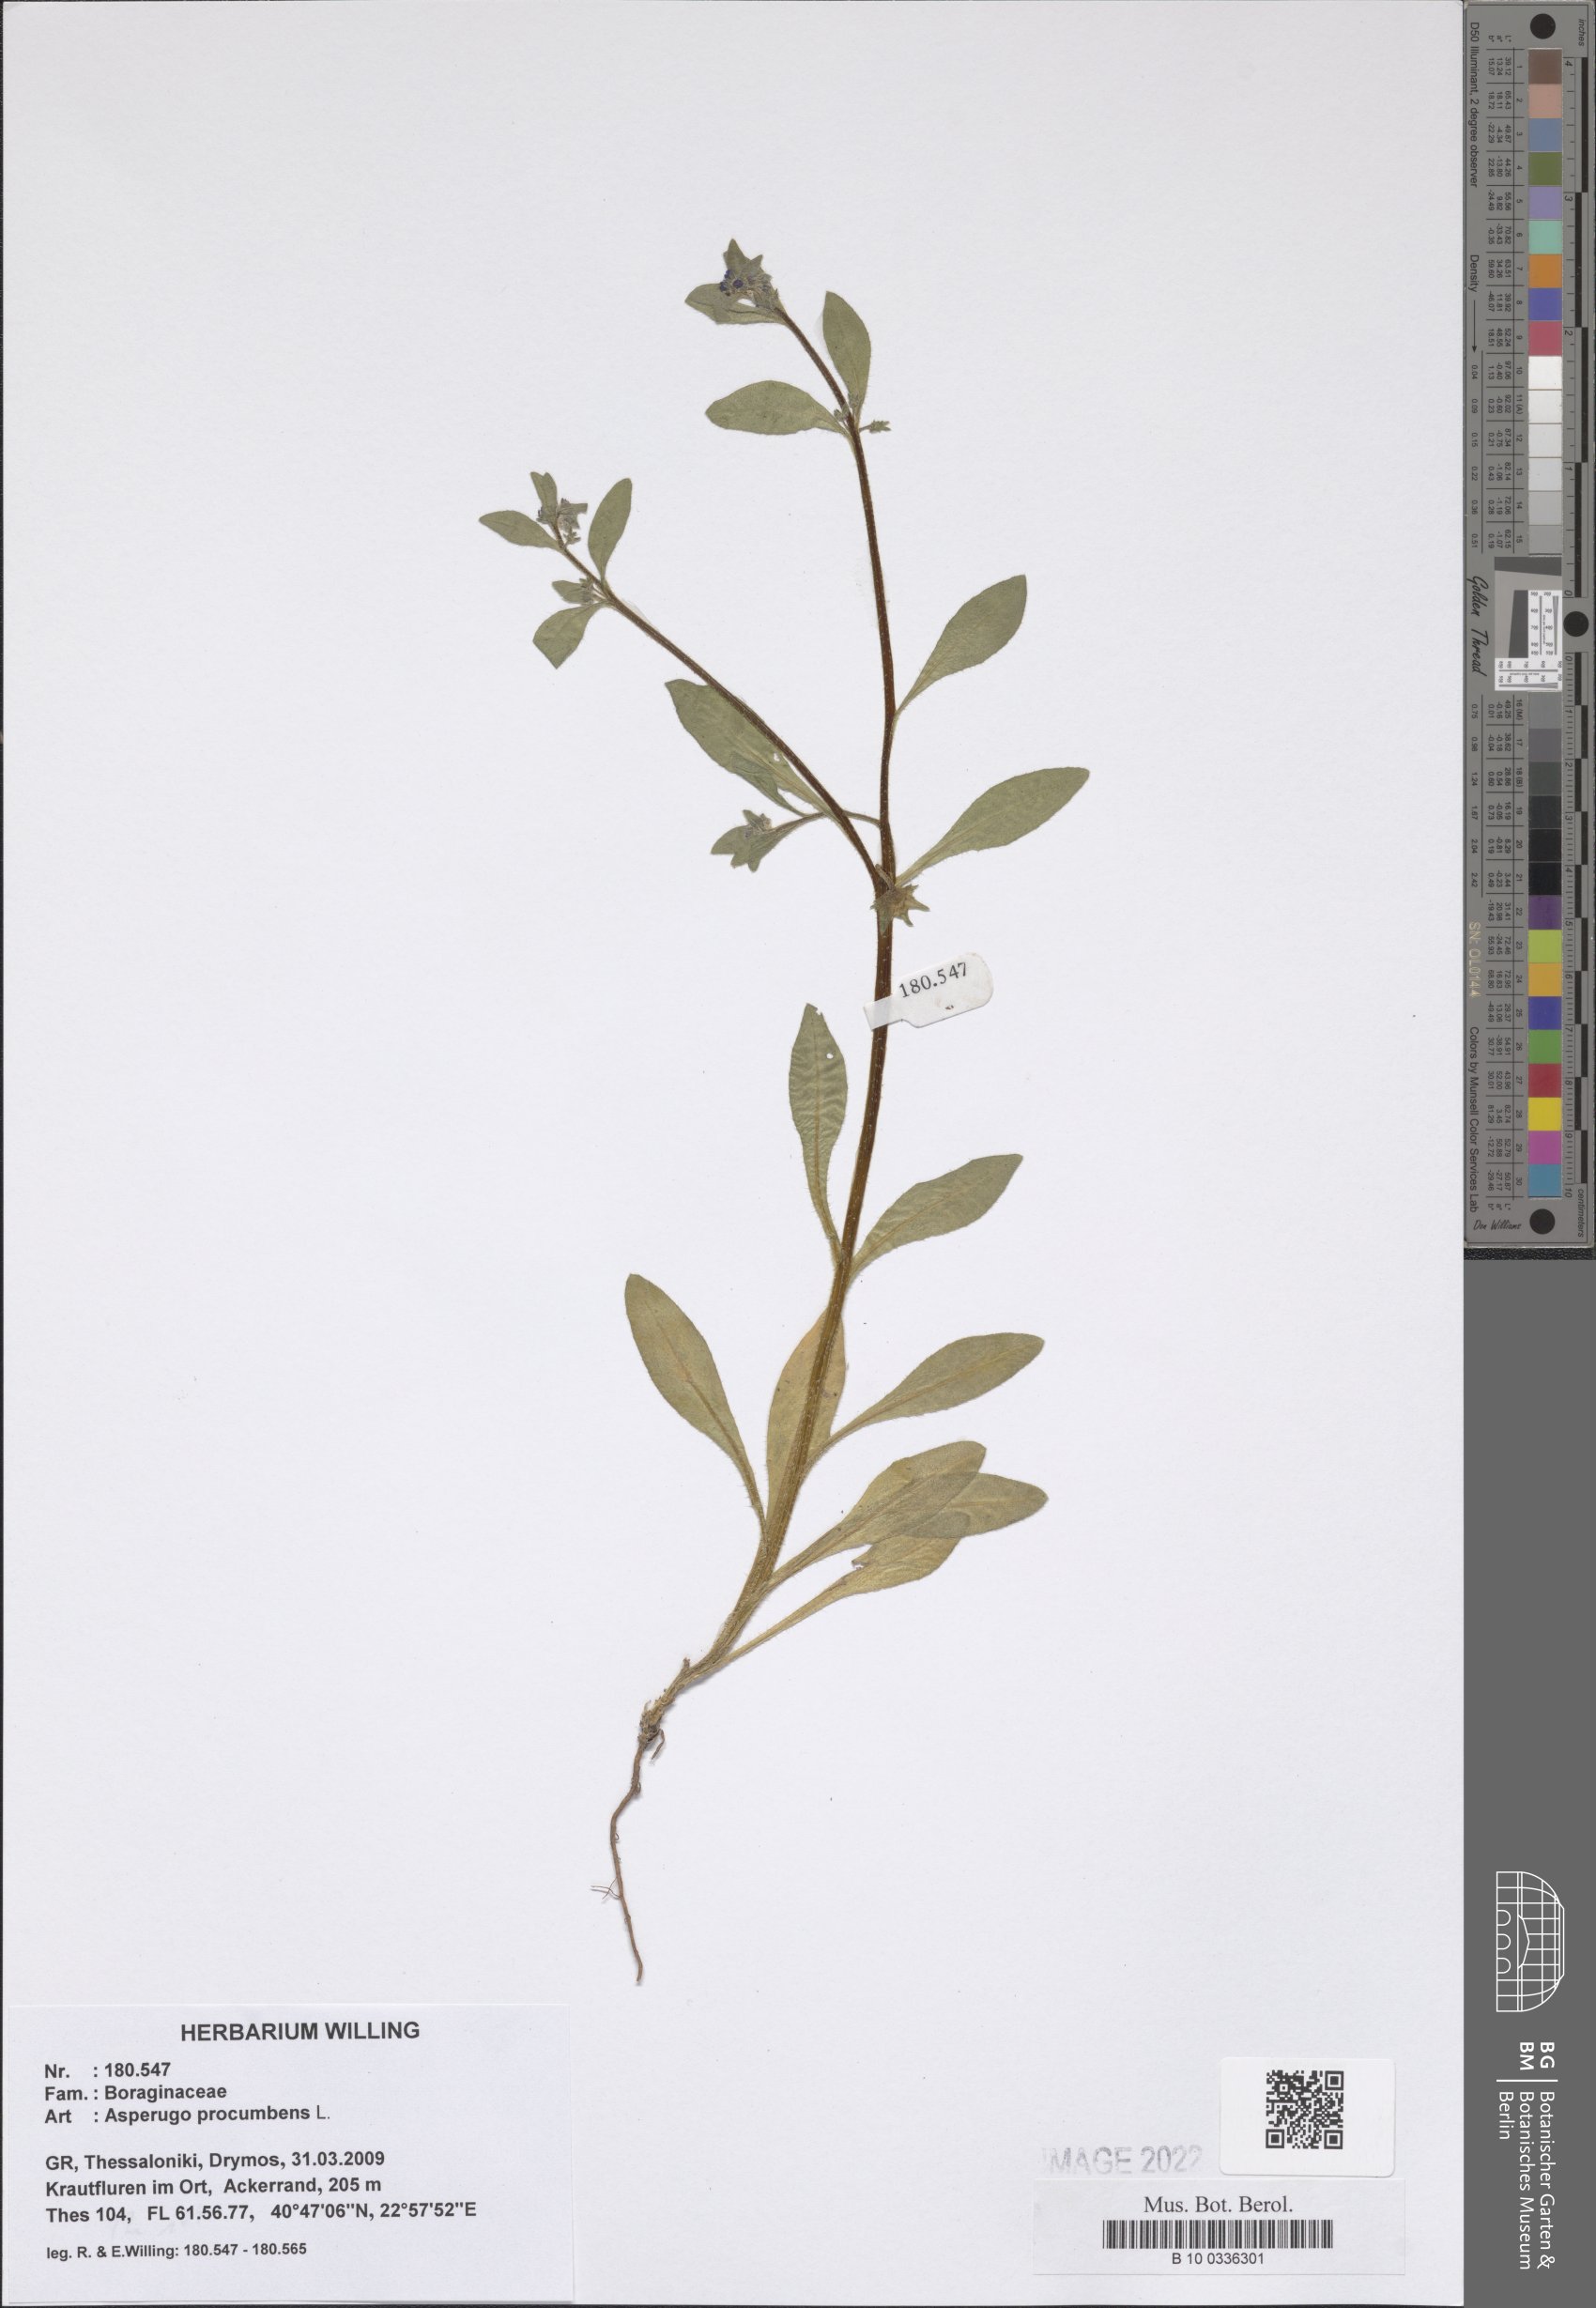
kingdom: Plantae
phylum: Tracheophyta
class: Magnoliopsida
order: Boraginales
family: Boraginaceae
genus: Asperugo
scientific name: Asperugo procumbens
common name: Madwort
